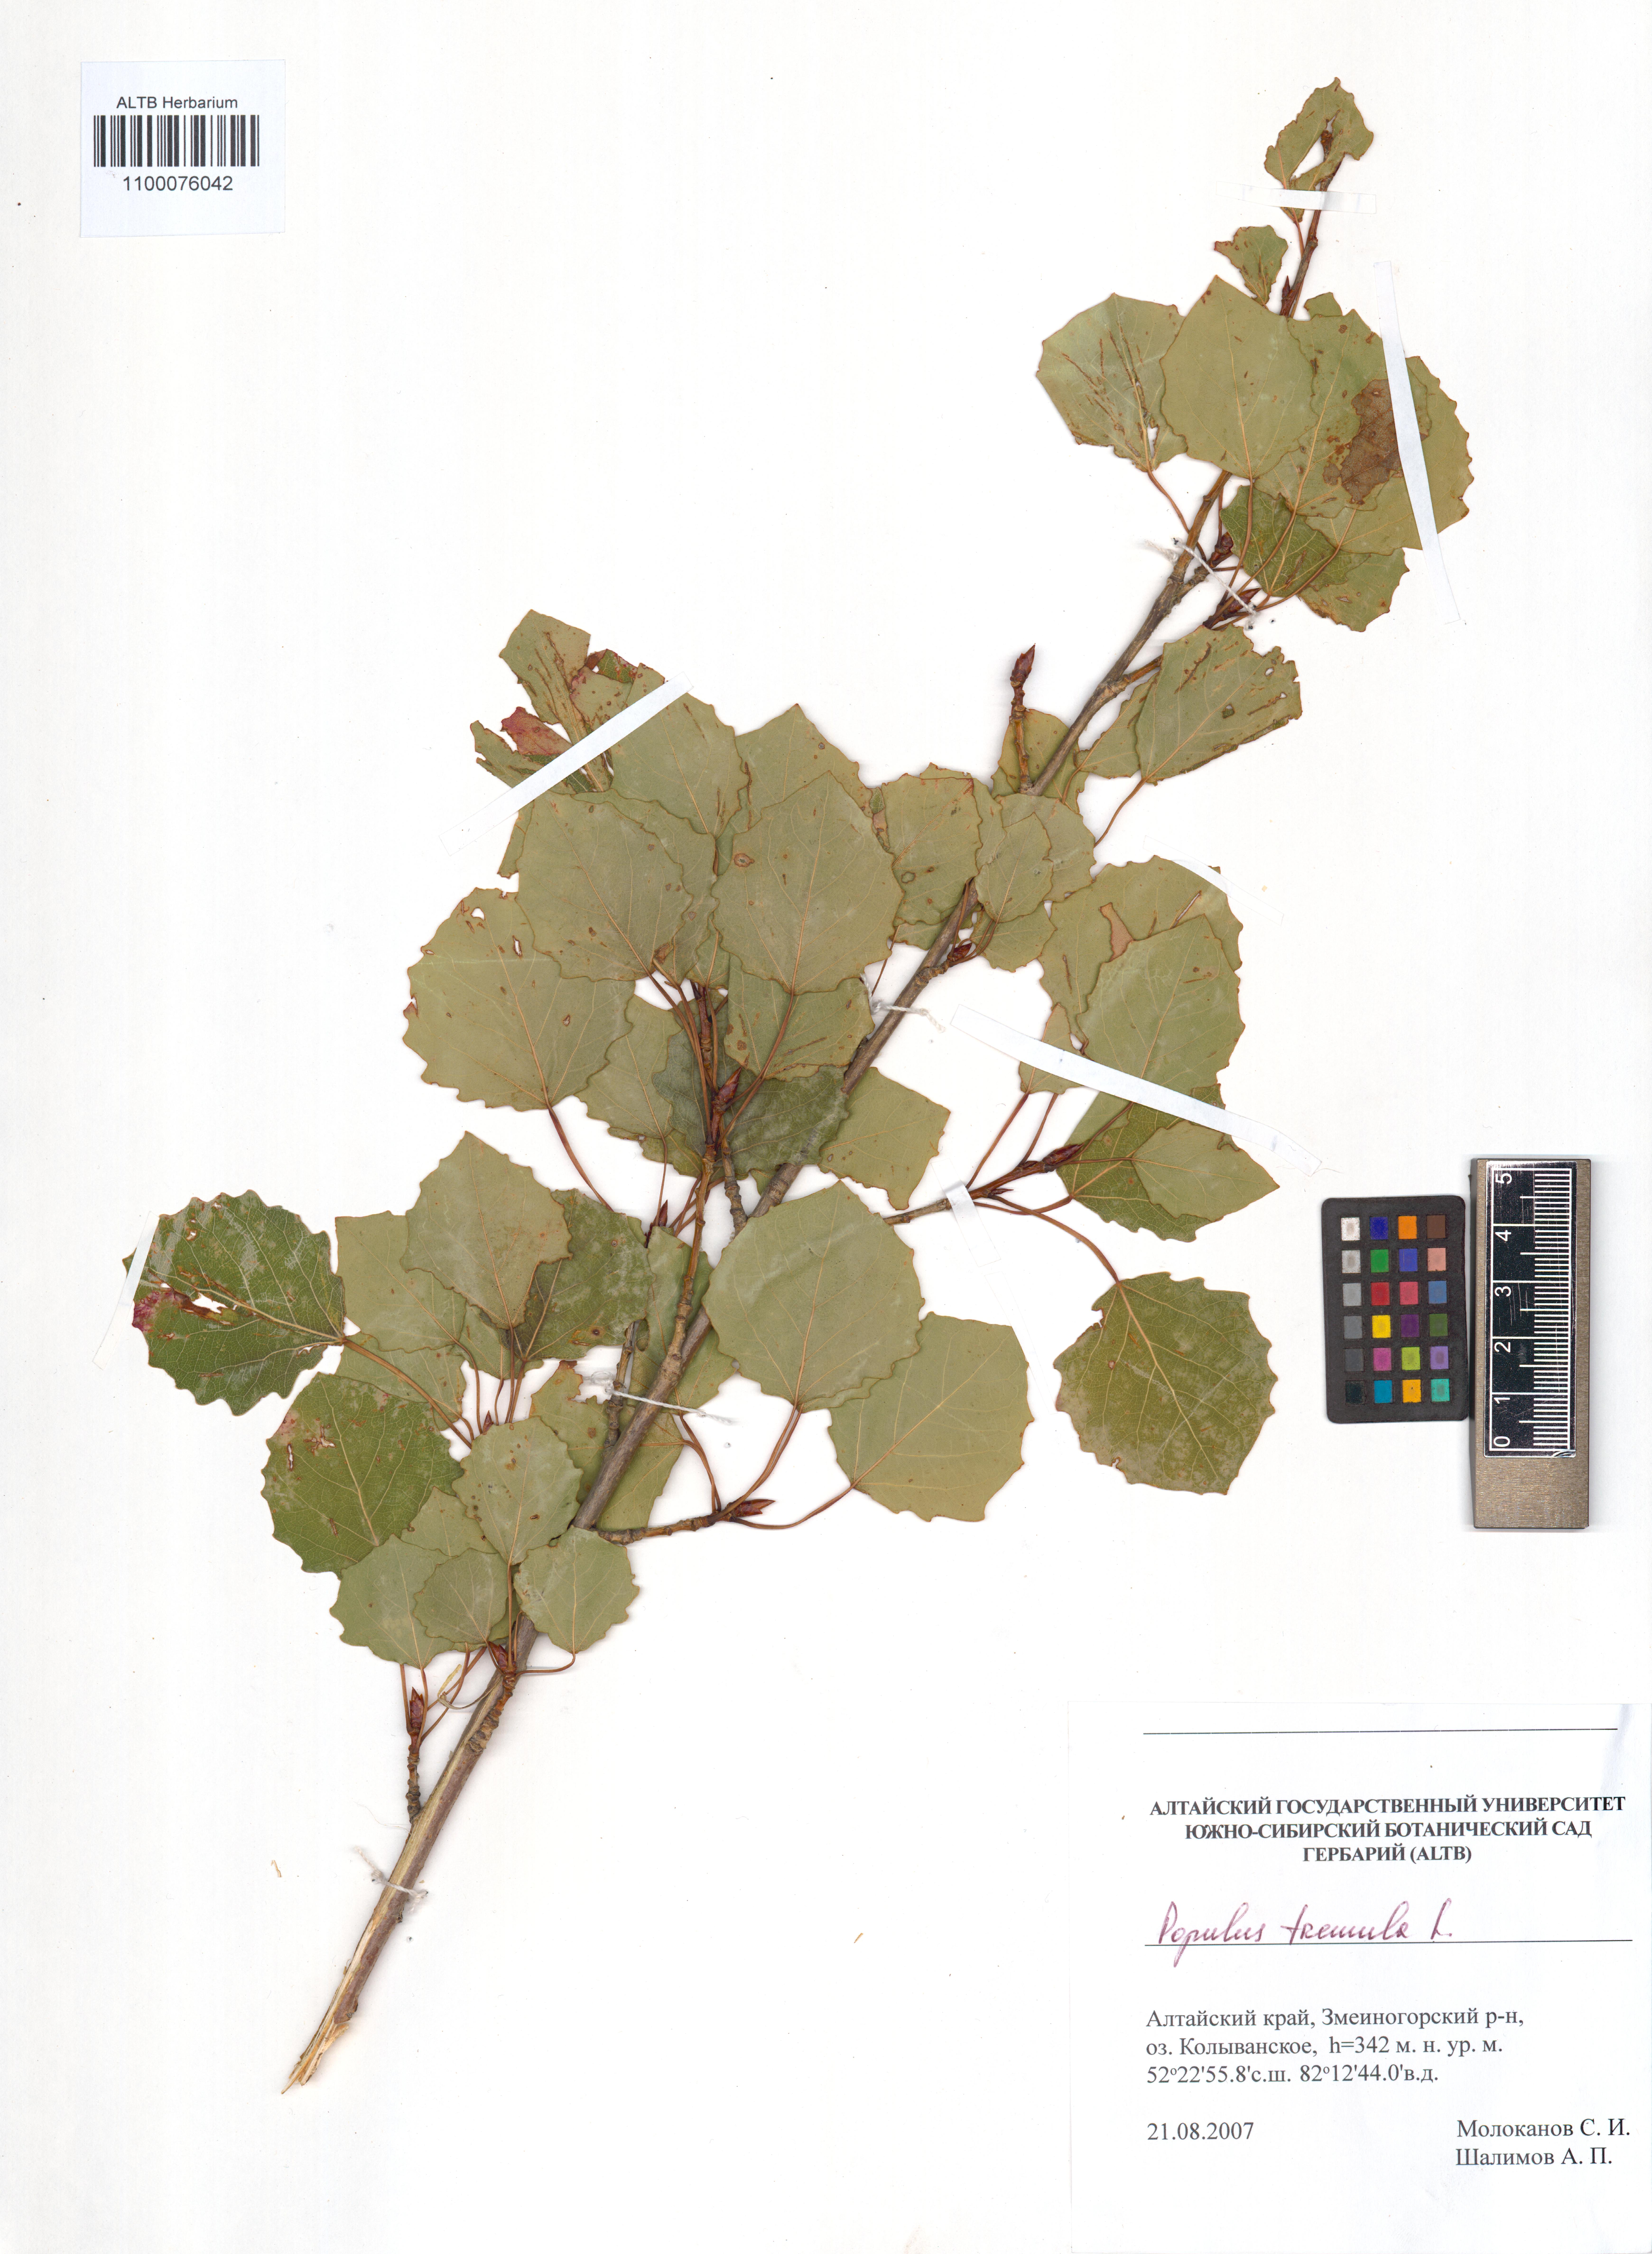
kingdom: Plantae
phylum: Tracheophyta
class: Magnoliopsida
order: Malpighiales
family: Salicaceae
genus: Populus
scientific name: Populus tremula
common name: European aspen
